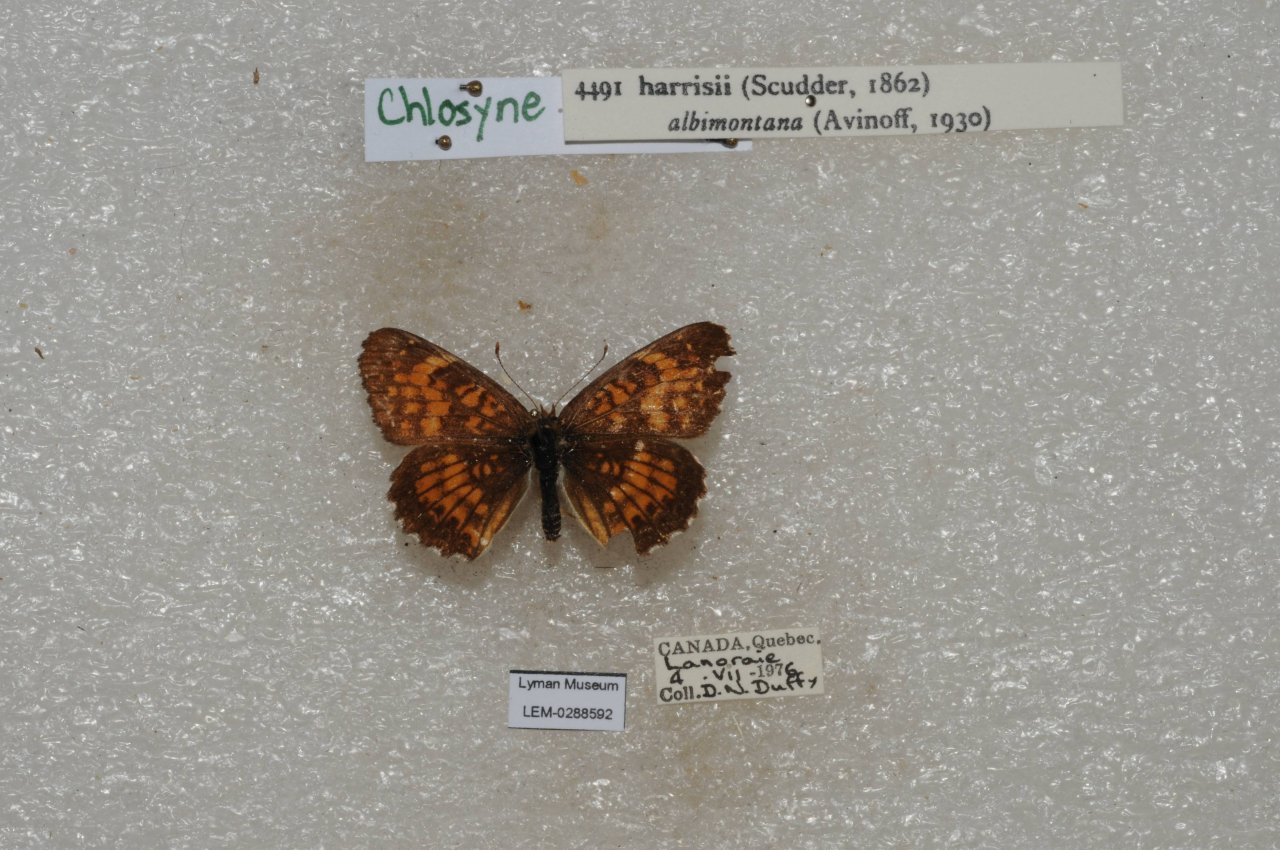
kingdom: Animalia
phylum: Arthropoda
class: Insecta
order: Lepidoptera
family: Nymphalidae
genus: Chlosyne
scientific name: Chlosyne harrisii
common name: Harris's Checkerspot
